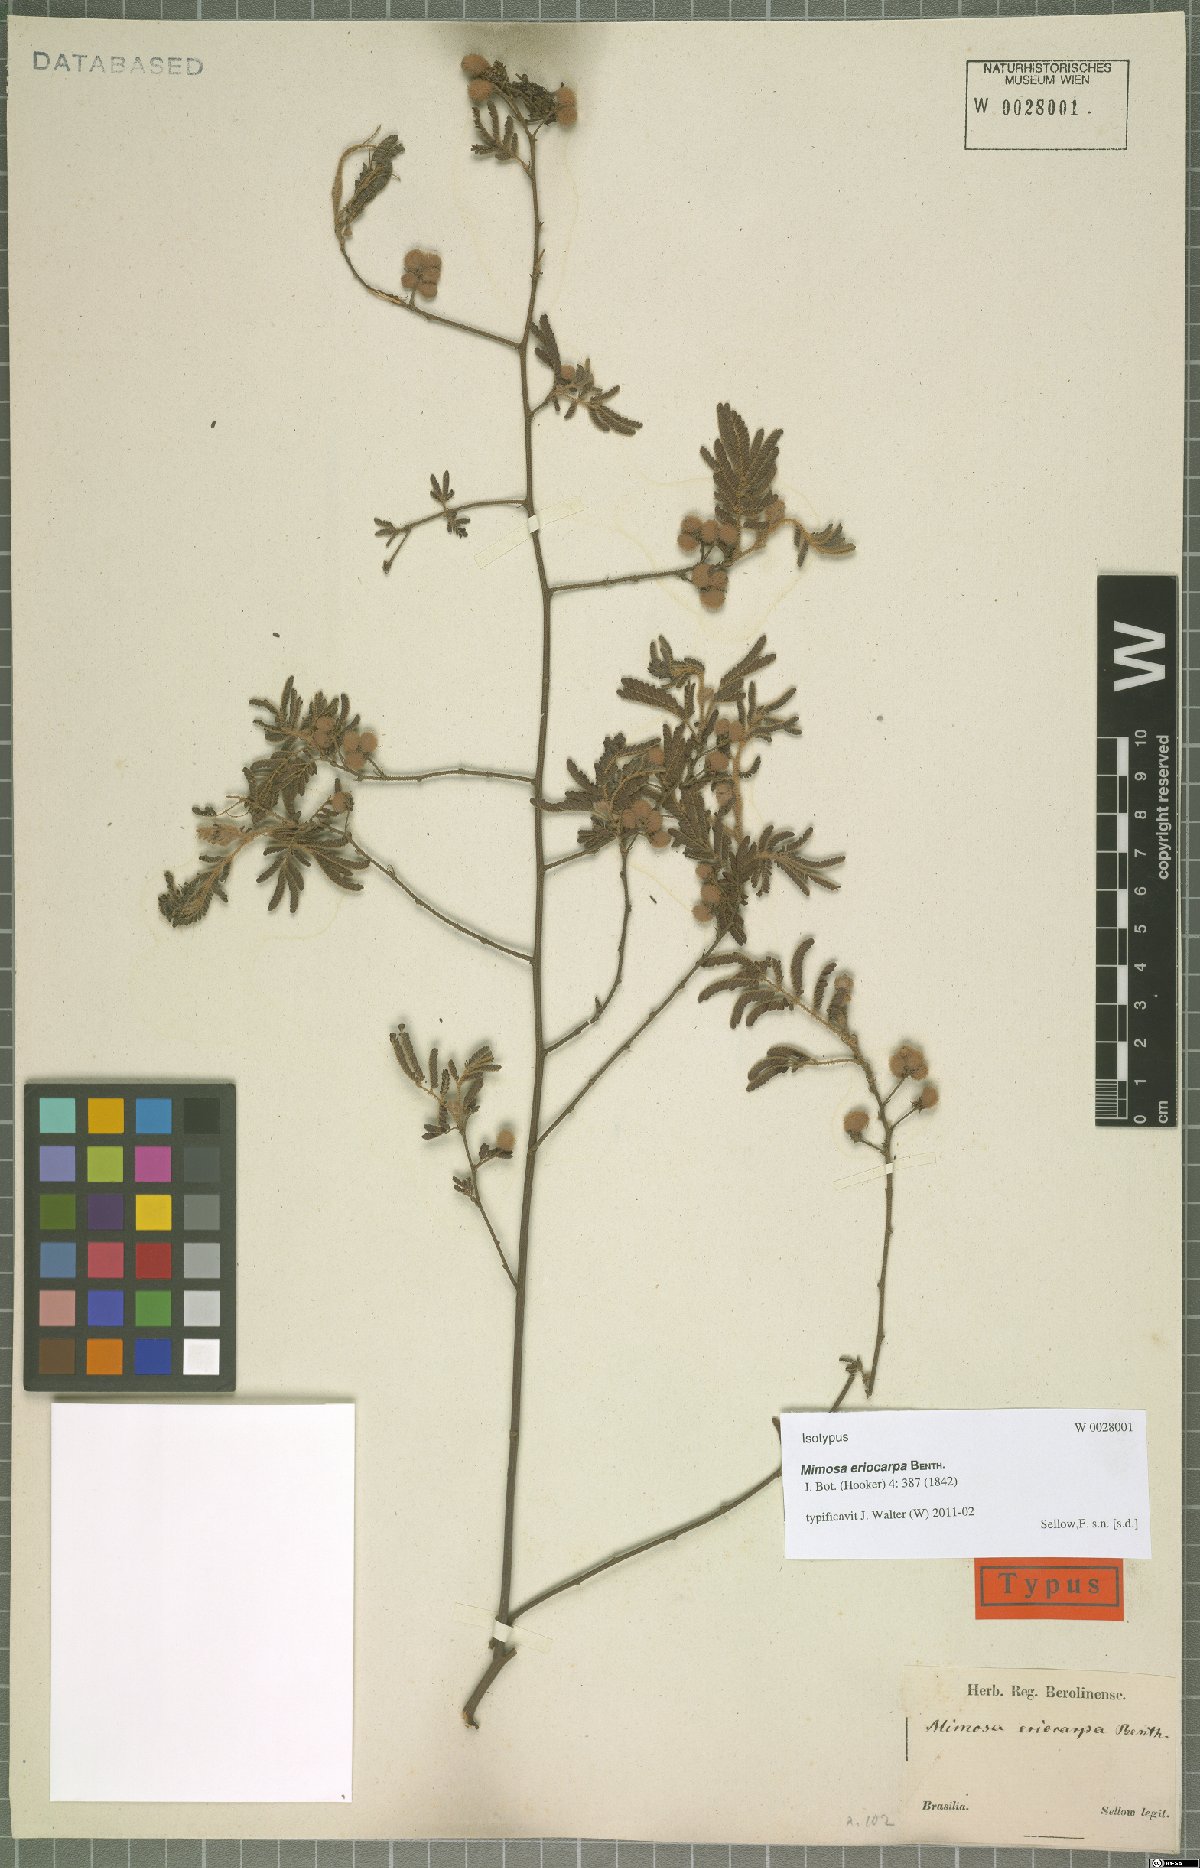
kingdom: Plantae
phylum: Tracheophyta
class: Magnoliopsida
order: Fabales
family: Fabaceae
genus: Mimosa
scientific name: Mimosa eriocarpa
